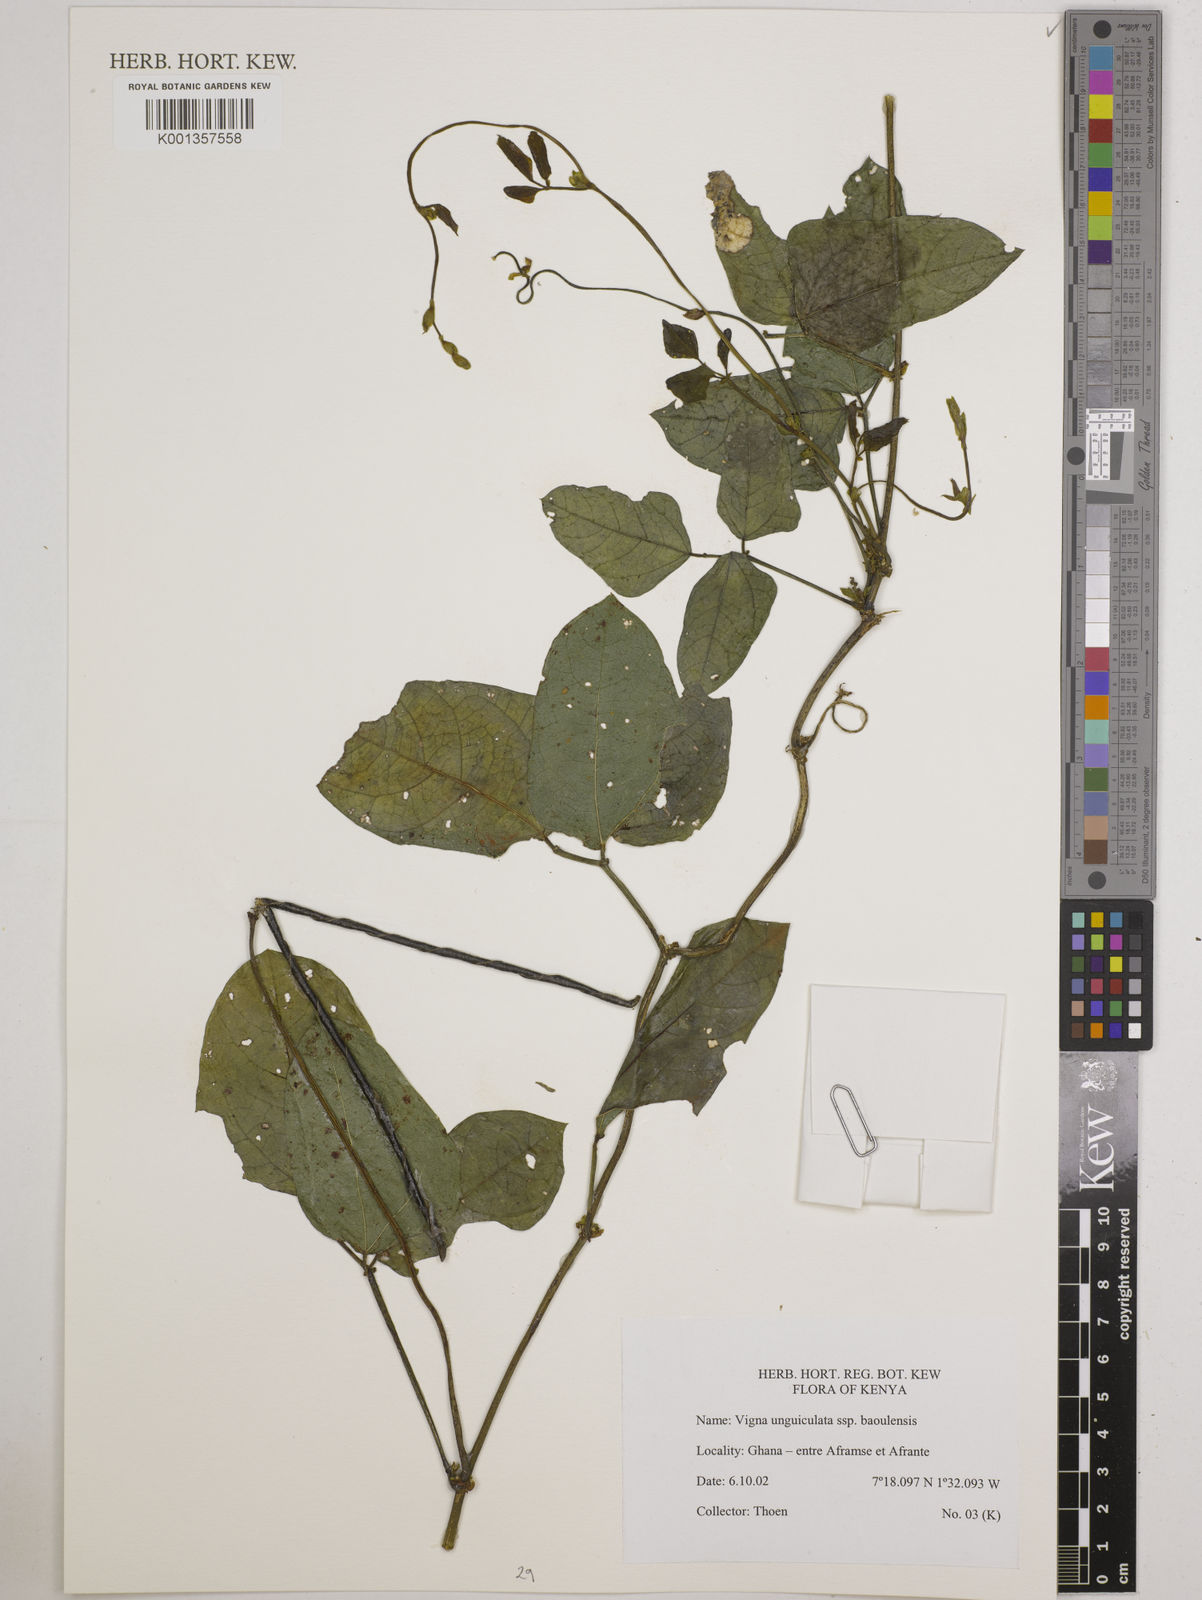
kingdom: Plantae
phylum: Tracheophyta
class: Magnoliopsida
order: Fabales
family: Fabaceae
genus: Vigna
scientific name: Vigna unguiculata
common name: Cowpea
